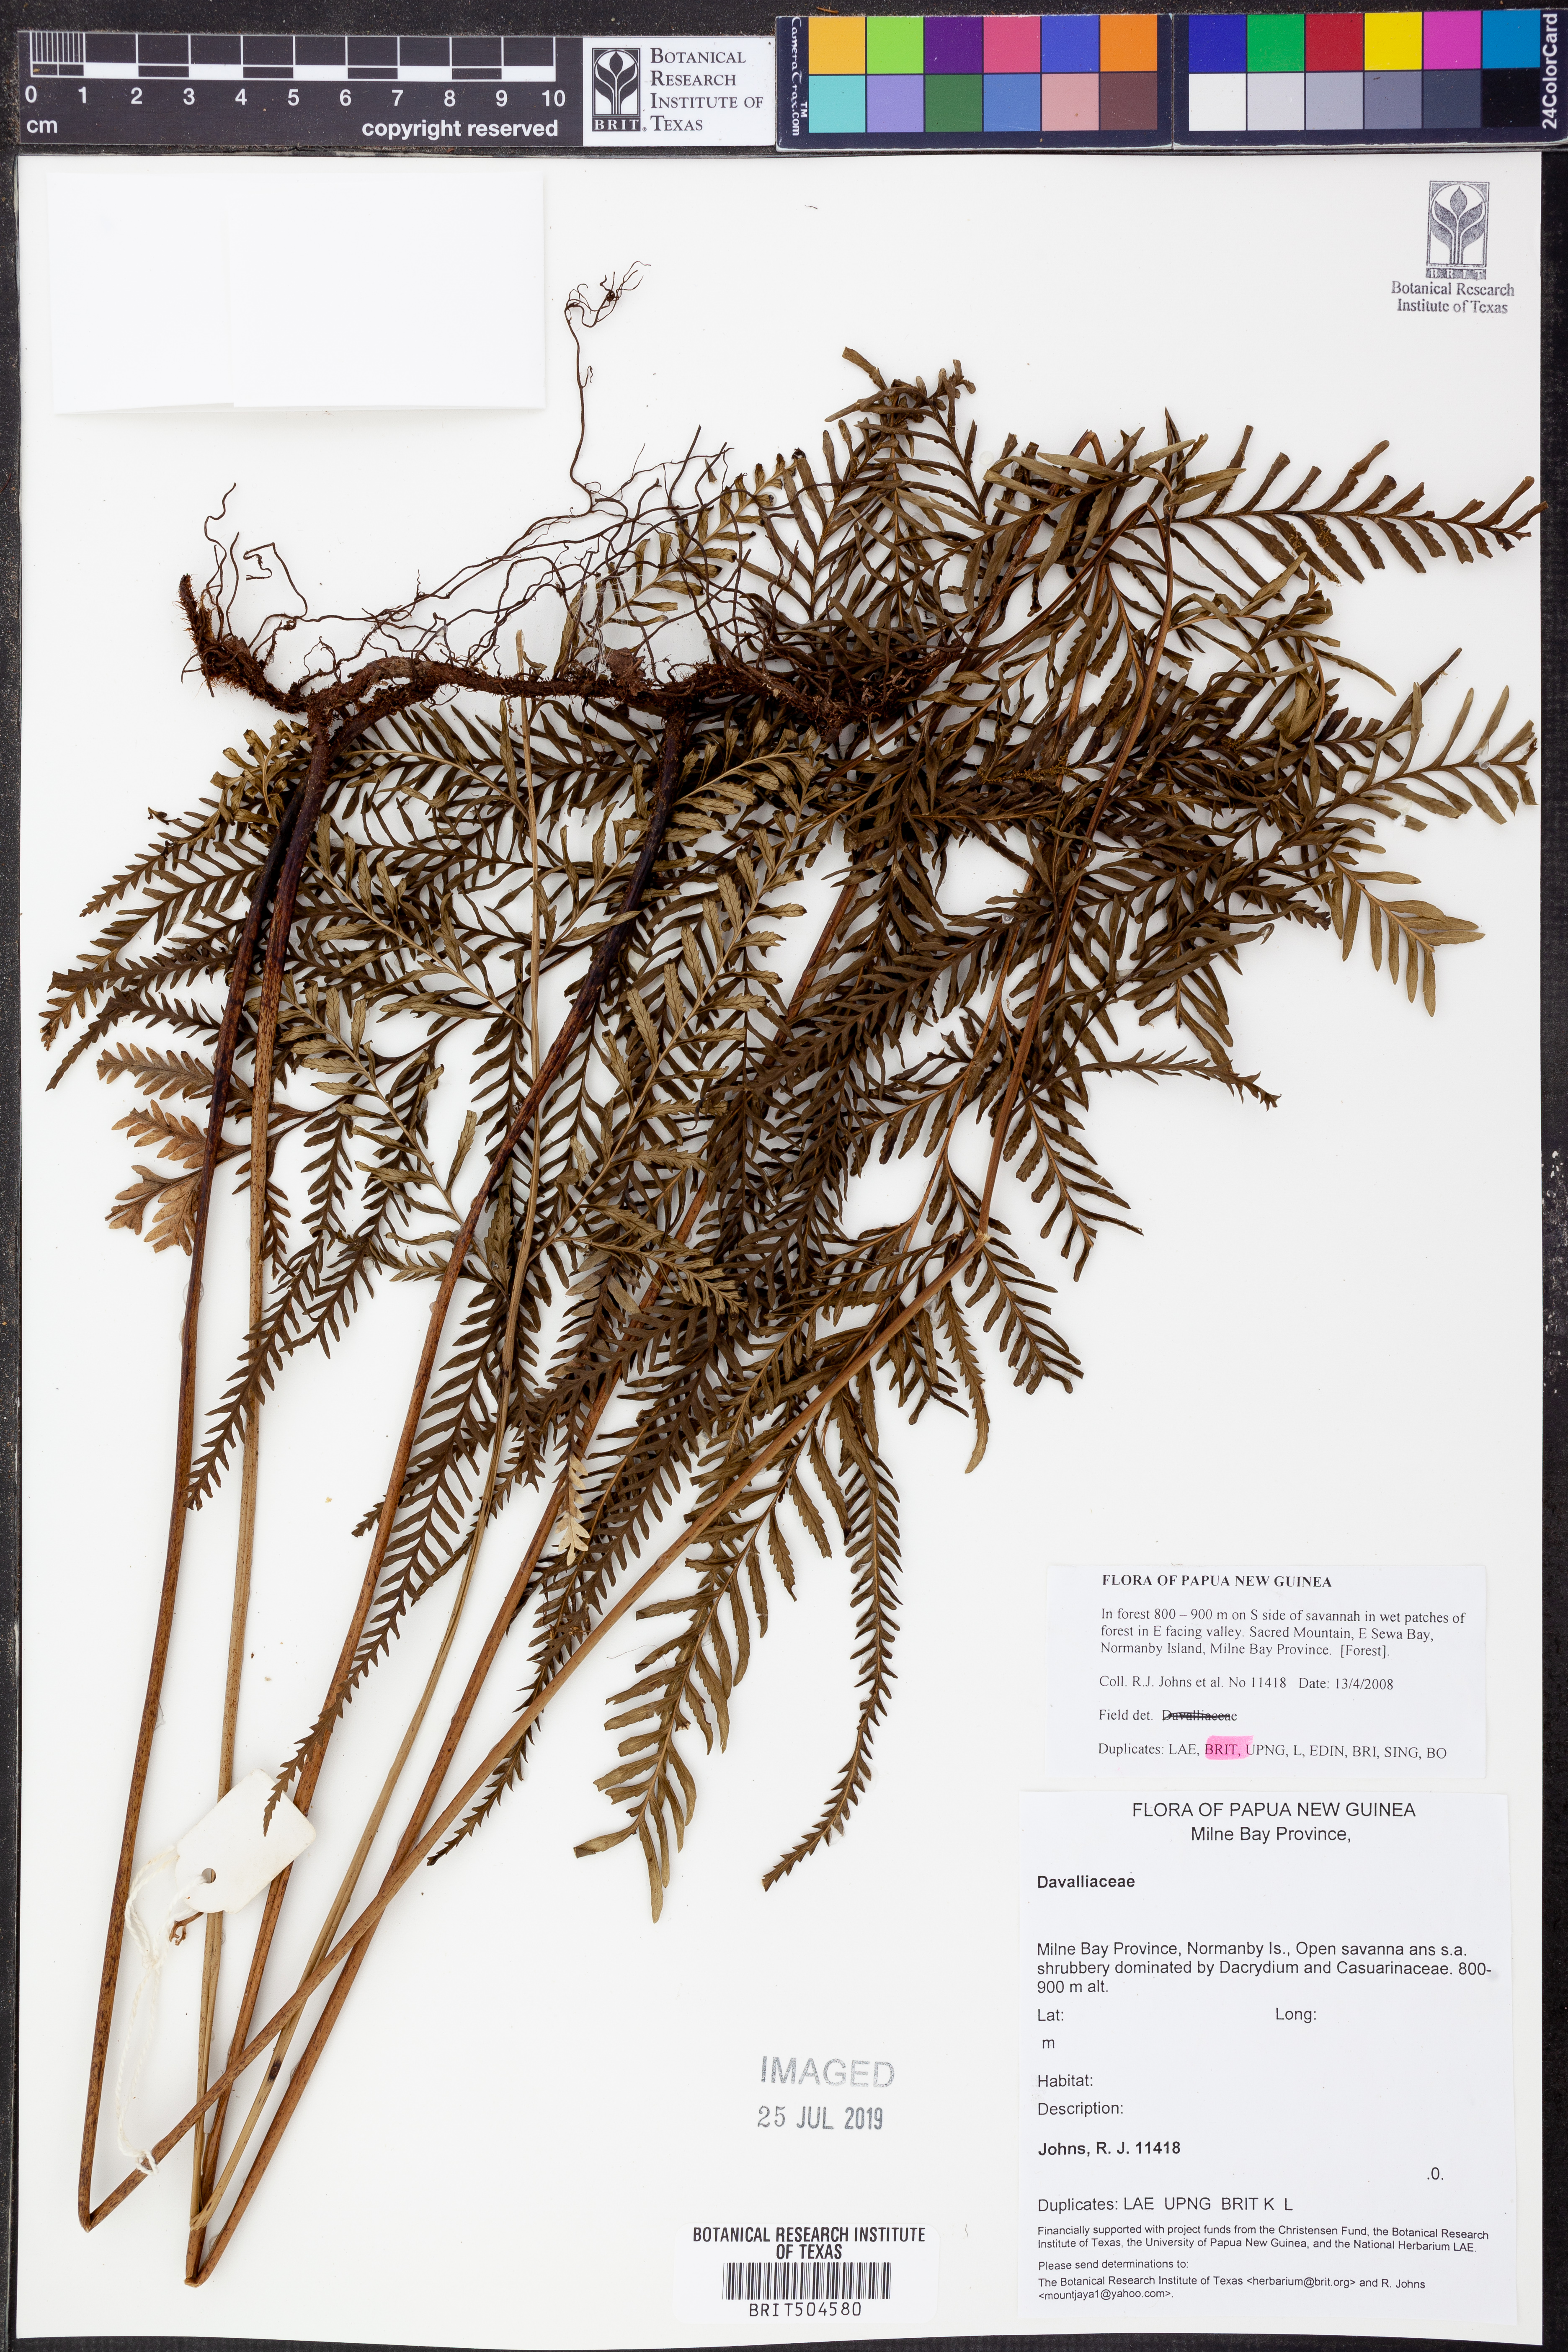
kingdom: Plantae
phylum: Tracheophyta
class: Polypodiopsida
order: Polypodiales
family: Davalliaceae
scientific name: Davalliaceae
